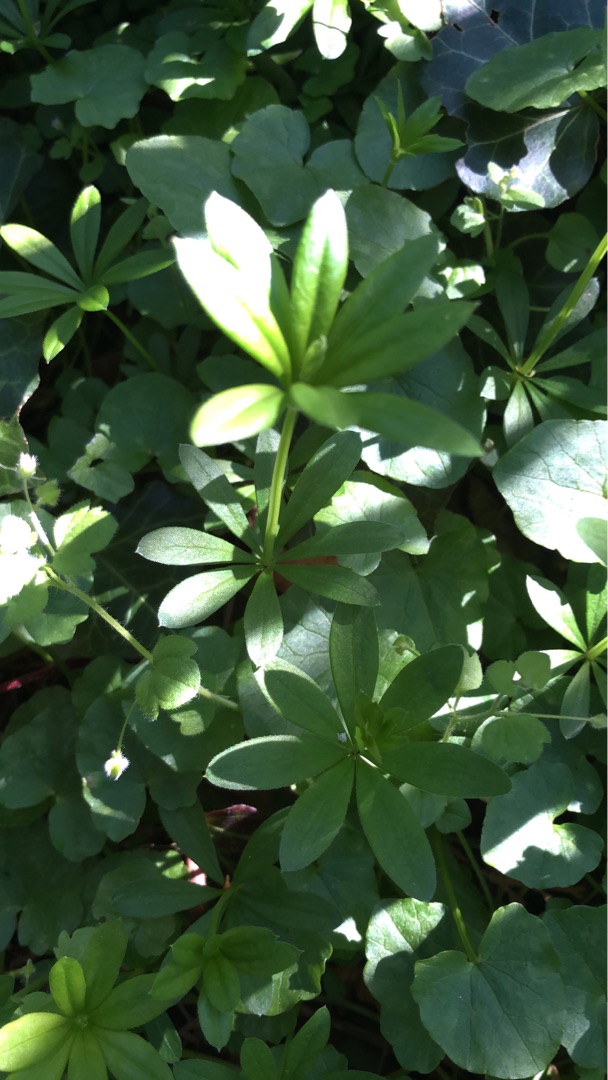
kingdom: Plantae
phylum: Tracheophyta
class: Magnoliopsida
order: Gentianales
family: Rubiaceae
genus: Galium
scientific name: Galium odoratum
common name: Skovmærke
